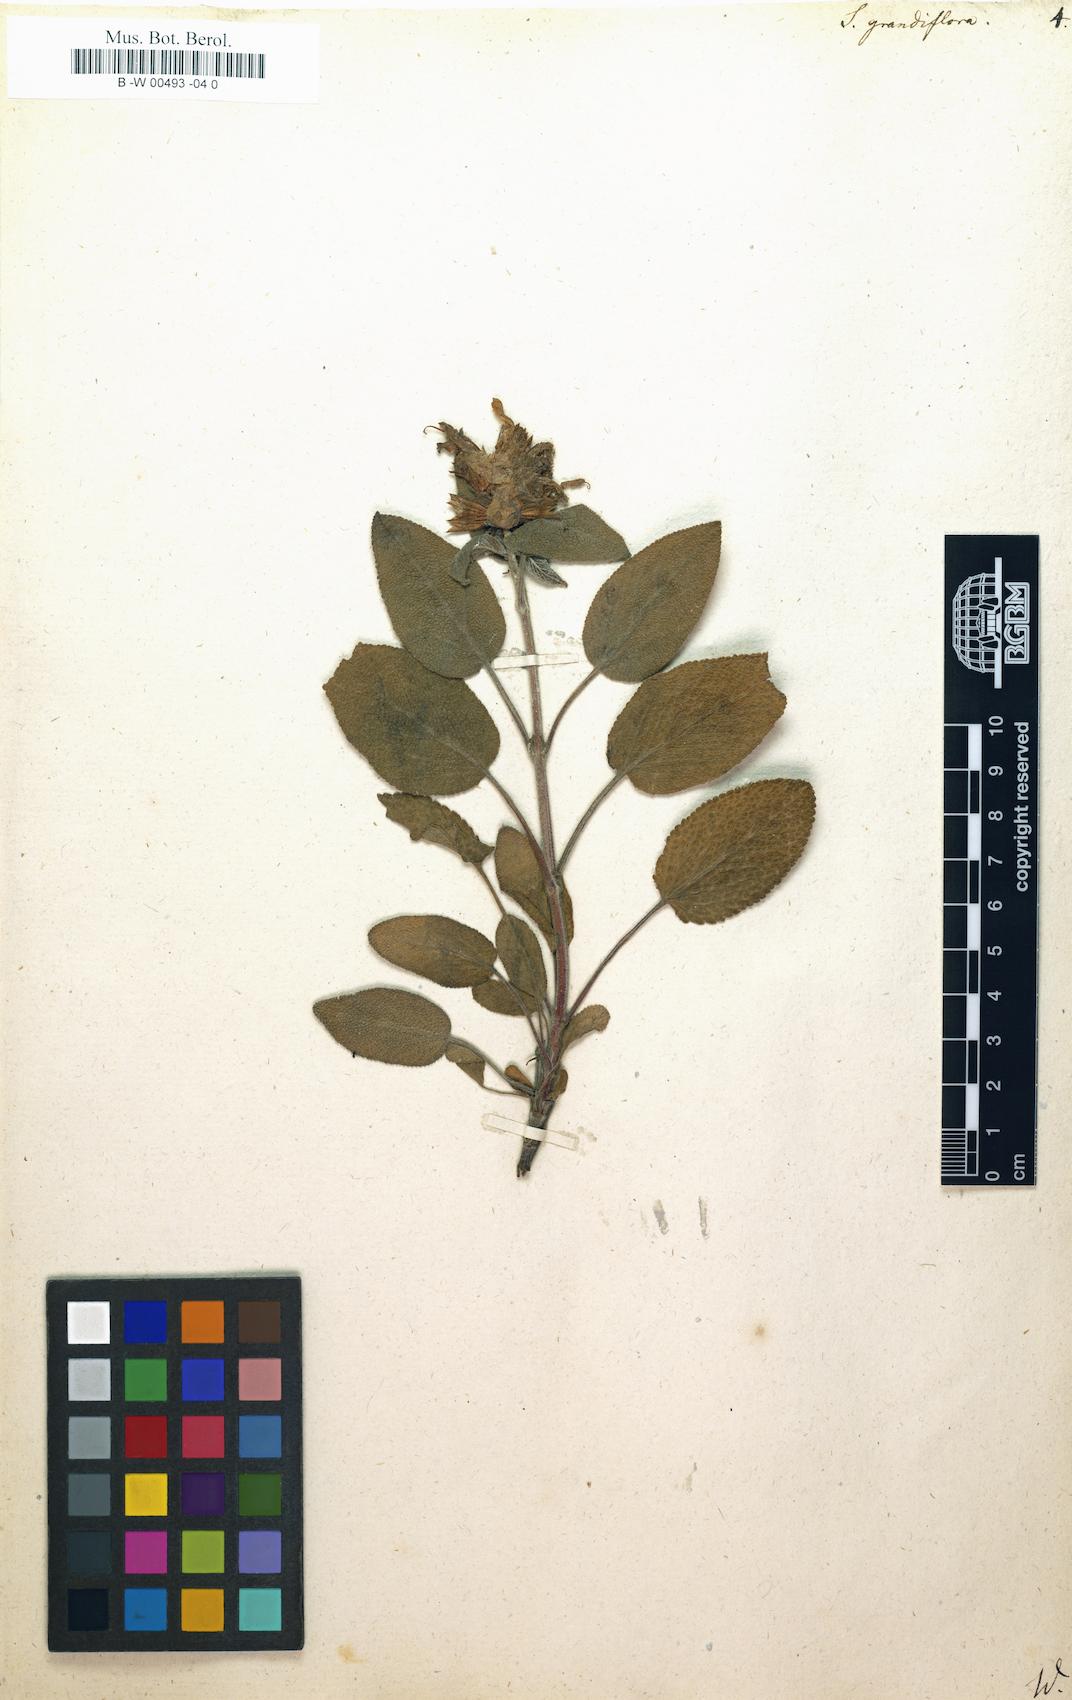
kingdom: Plantae
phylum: Tracheophyta
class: Magnoliopsida
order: Lamiales
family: Lamiaceae
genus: Salvia
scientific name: Salvia tomentosa
